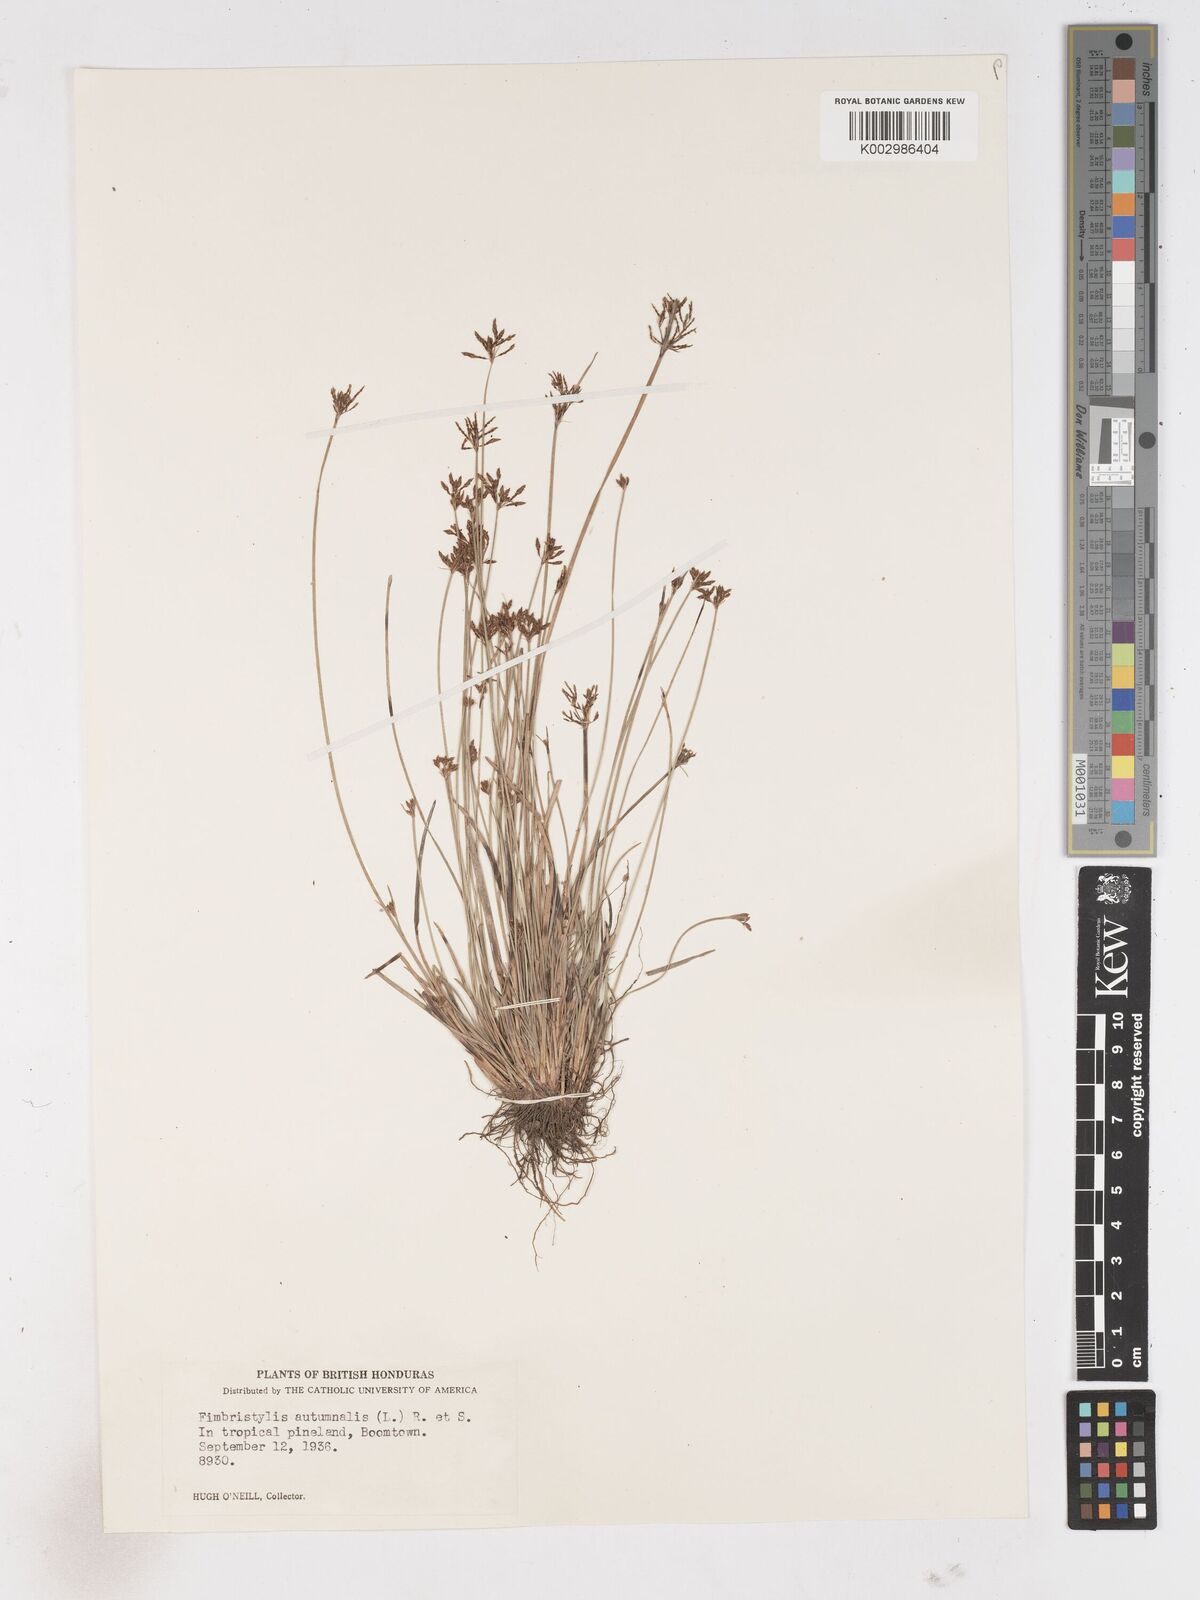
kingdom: Plantae
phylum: Tracheophyta
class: Liliopsida
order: Poales
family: Cyperaceae
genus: Fimbristylis
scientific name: Fimbristylis autumnalis
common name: Slender fimbristylis
